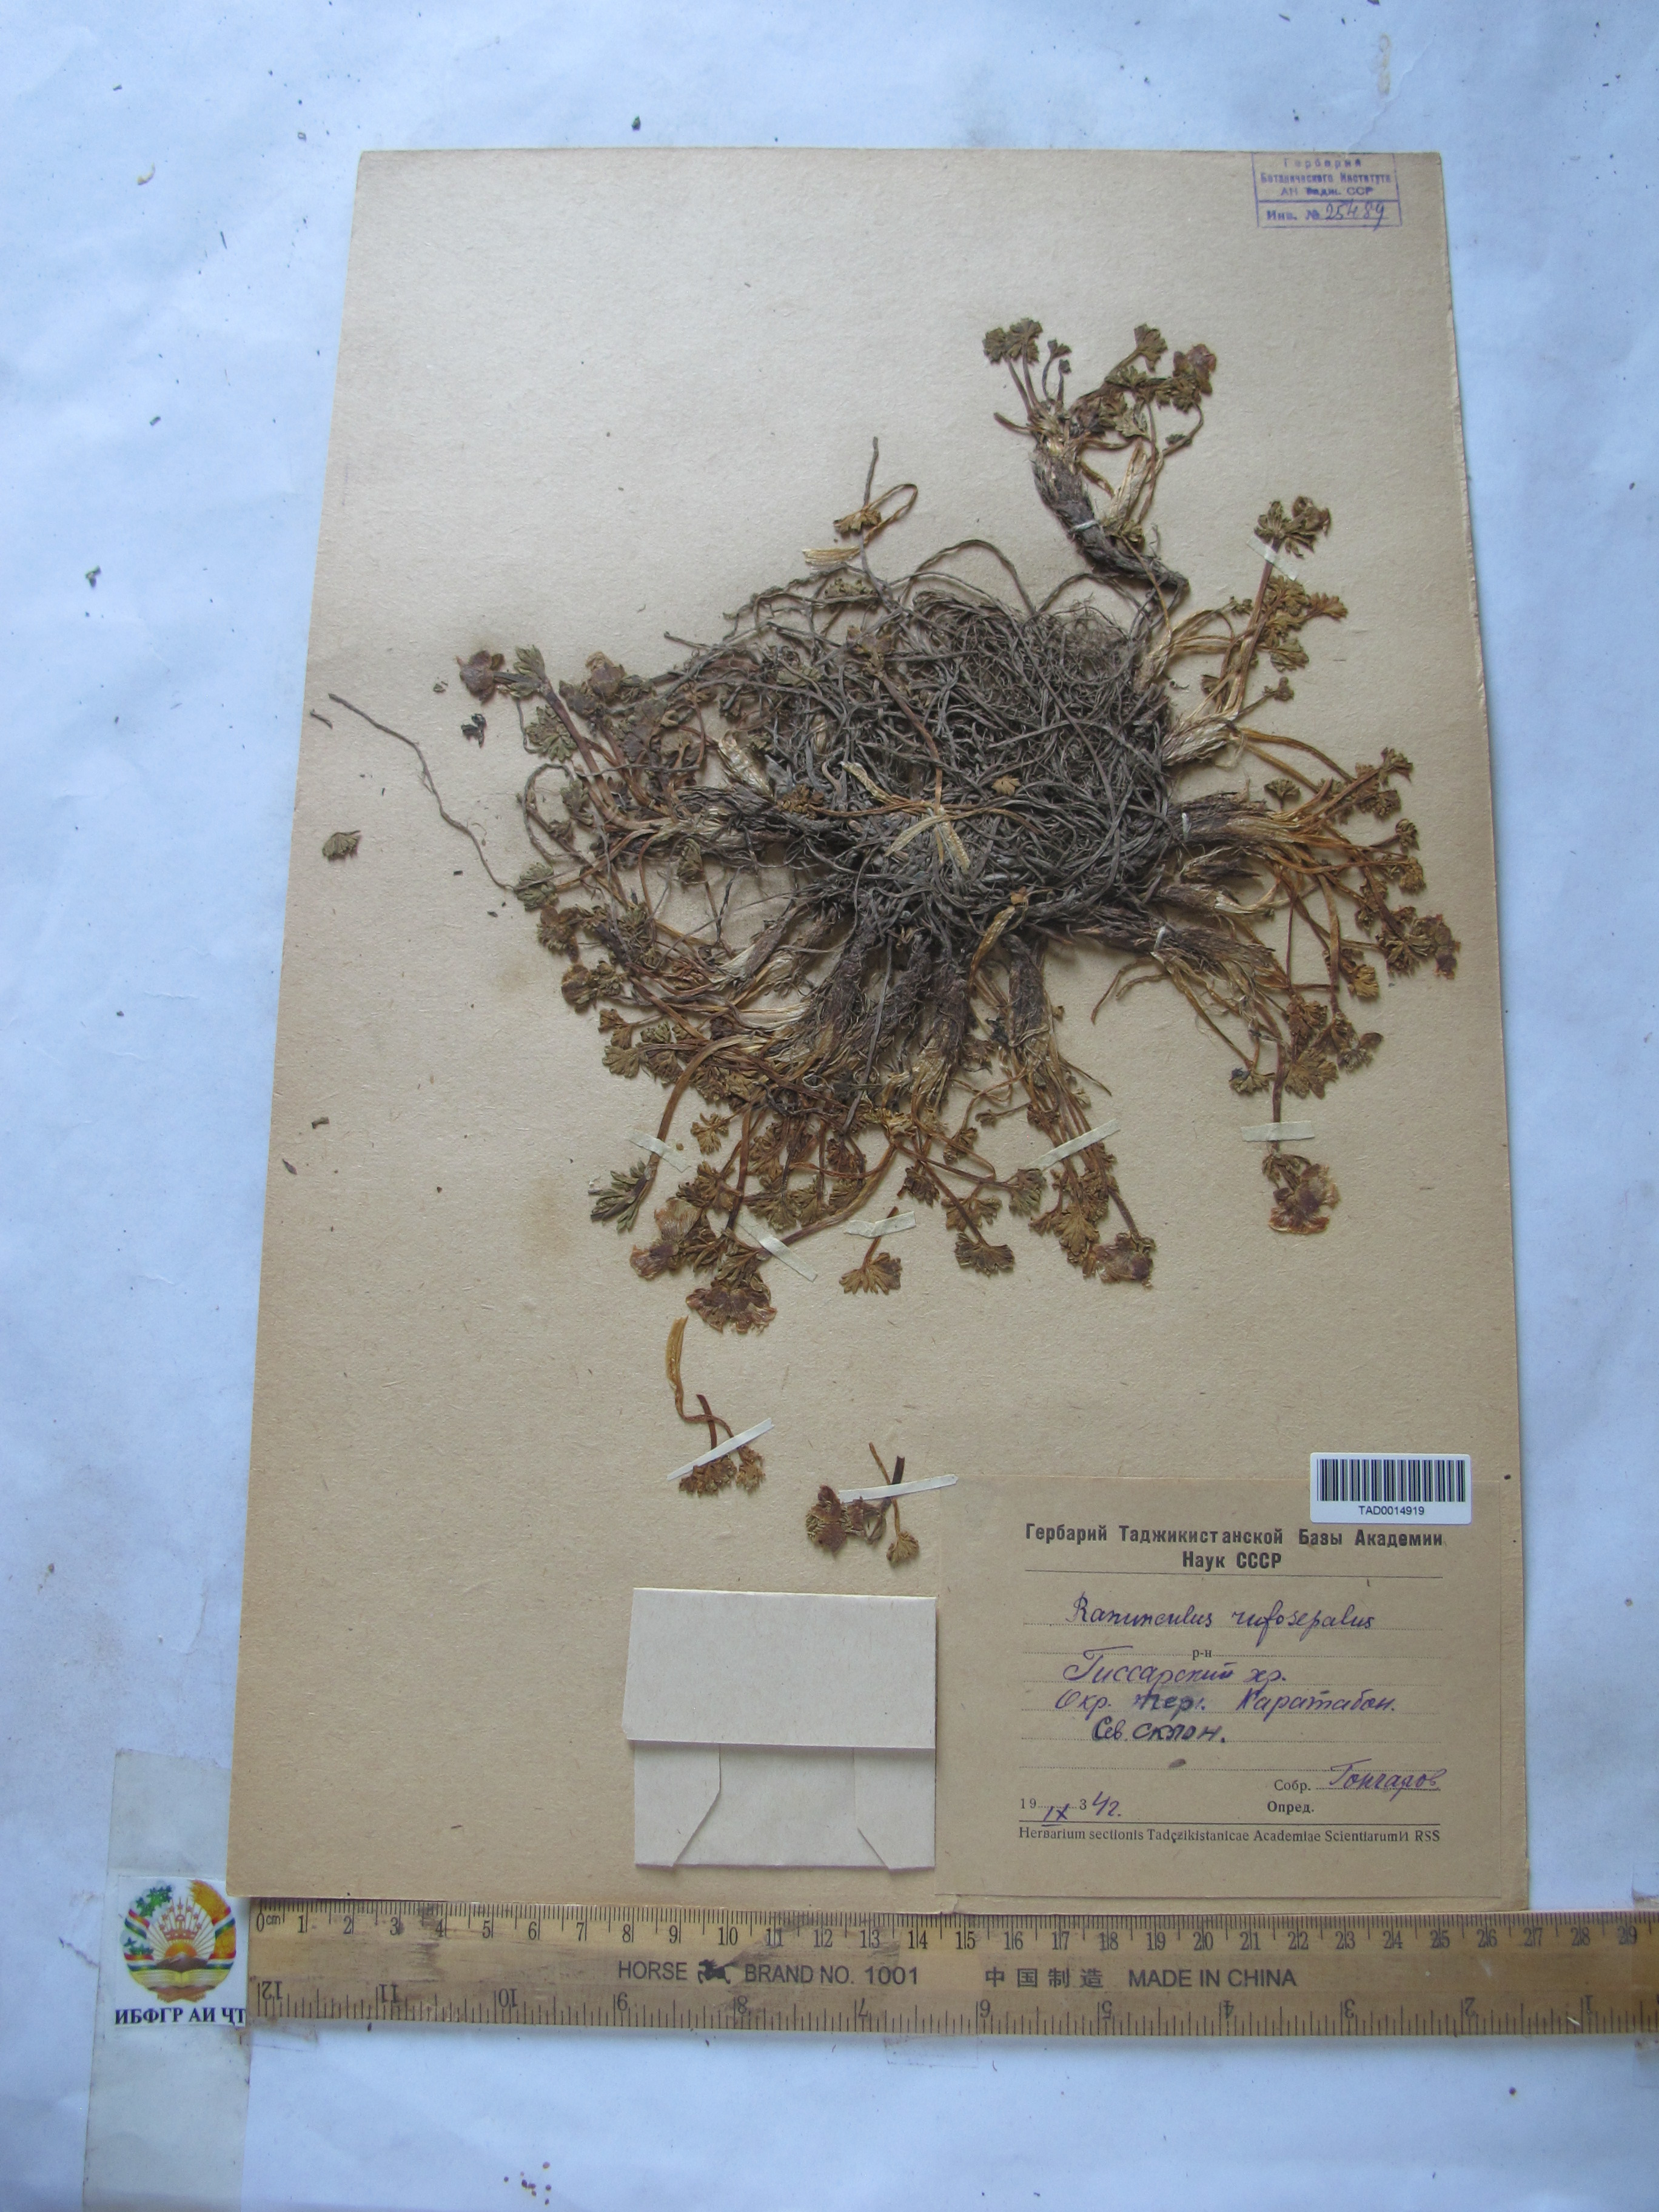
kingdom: Plantae
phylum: Tracheophyta
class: Magnoliopsida
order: Ranunculales
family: Ranunculaceae
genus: Ranunculus
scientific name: Ranunculus rufosepalus
